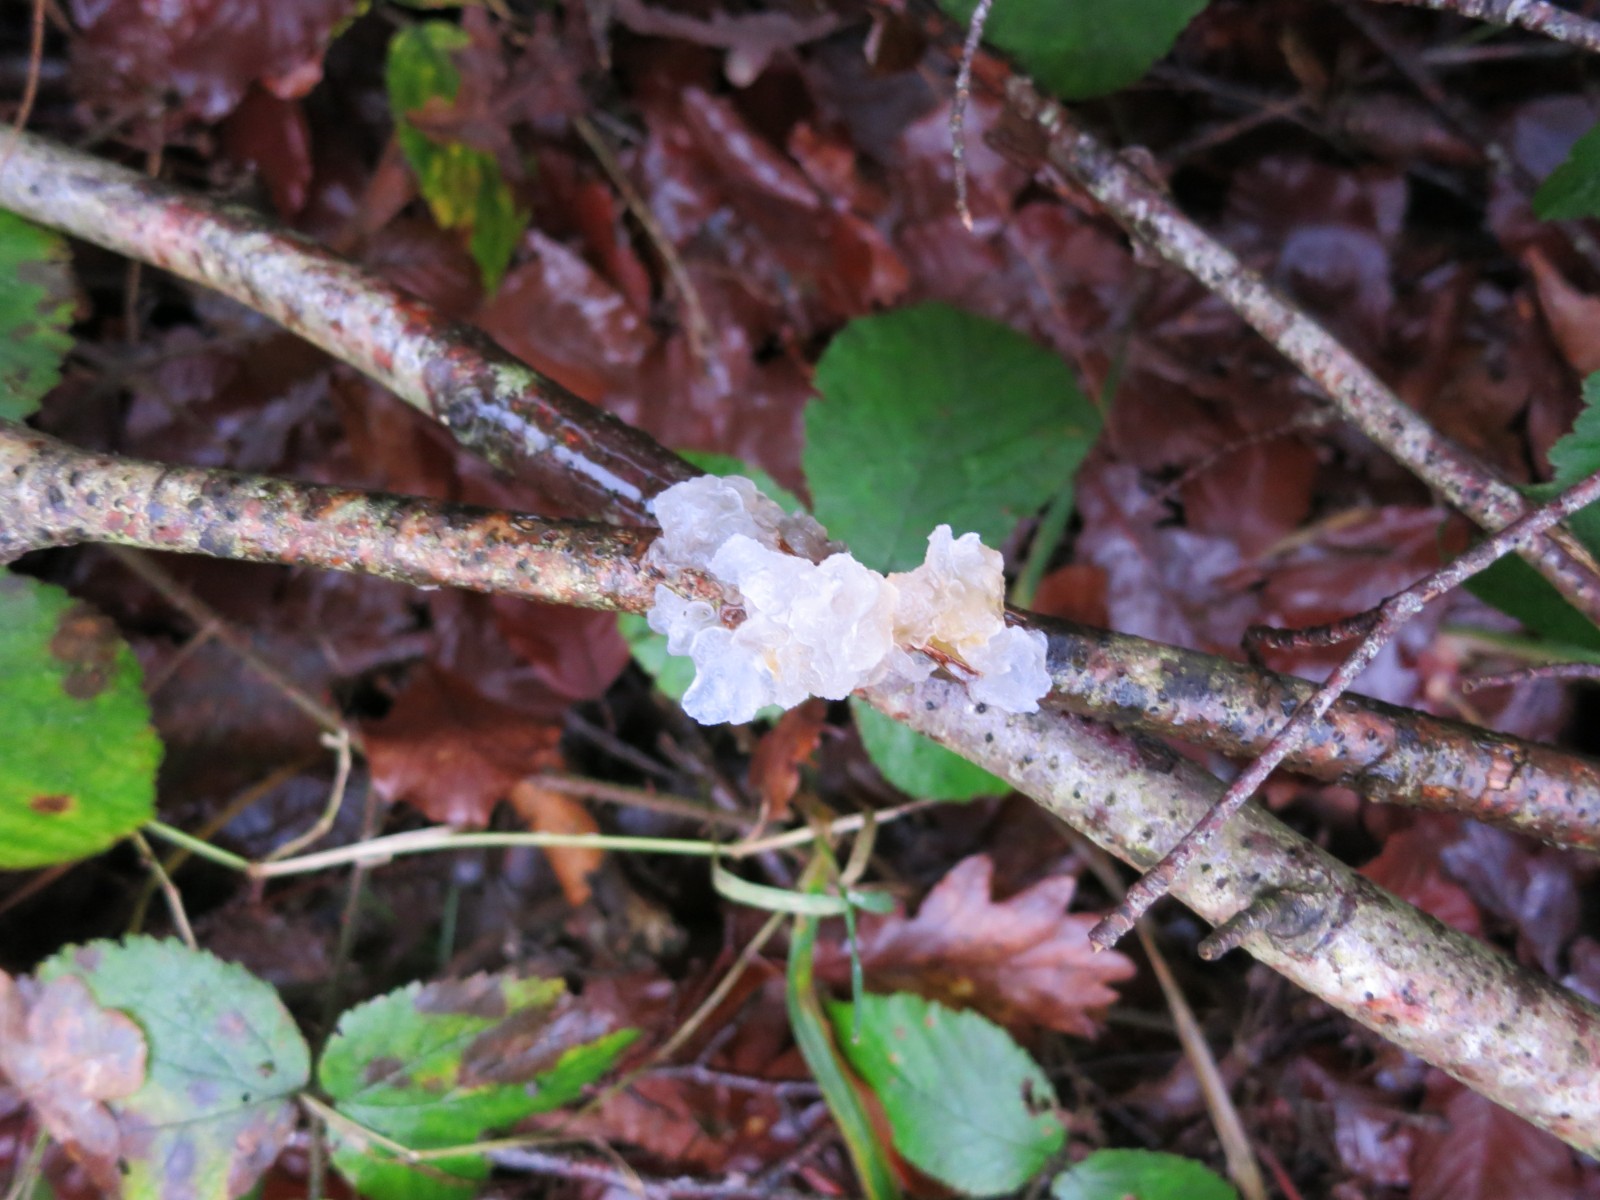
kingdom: Fungi
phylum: Basidiomycota
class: Tremellomycetes
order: Tremellales
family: Tremellaceae
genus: Tremella
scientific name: Tremella mesenterica
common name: gul bævresvamp
